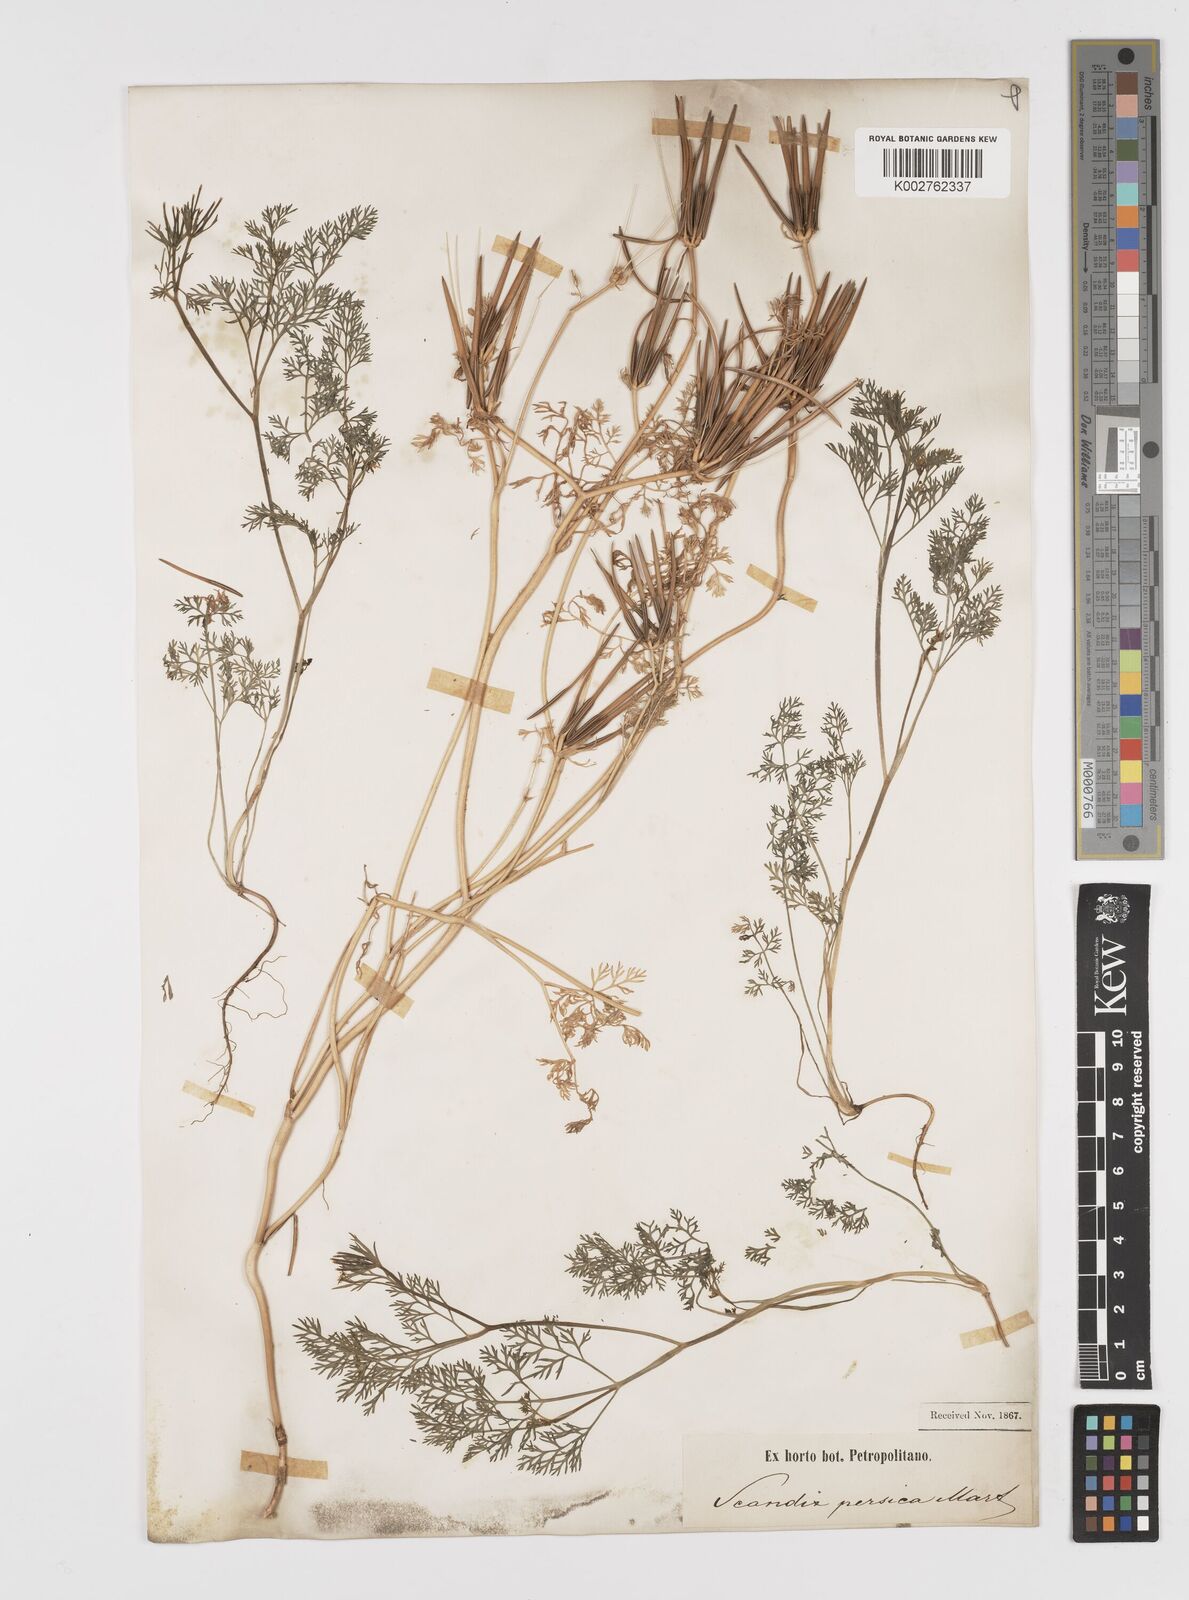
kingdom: Plantae
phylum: Tracheophyta
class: Magnoliopsida
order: Apiales
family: Apiaceae
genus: Scandix
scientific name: Scandix pecten-veneris
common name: Shepherd's-needle
